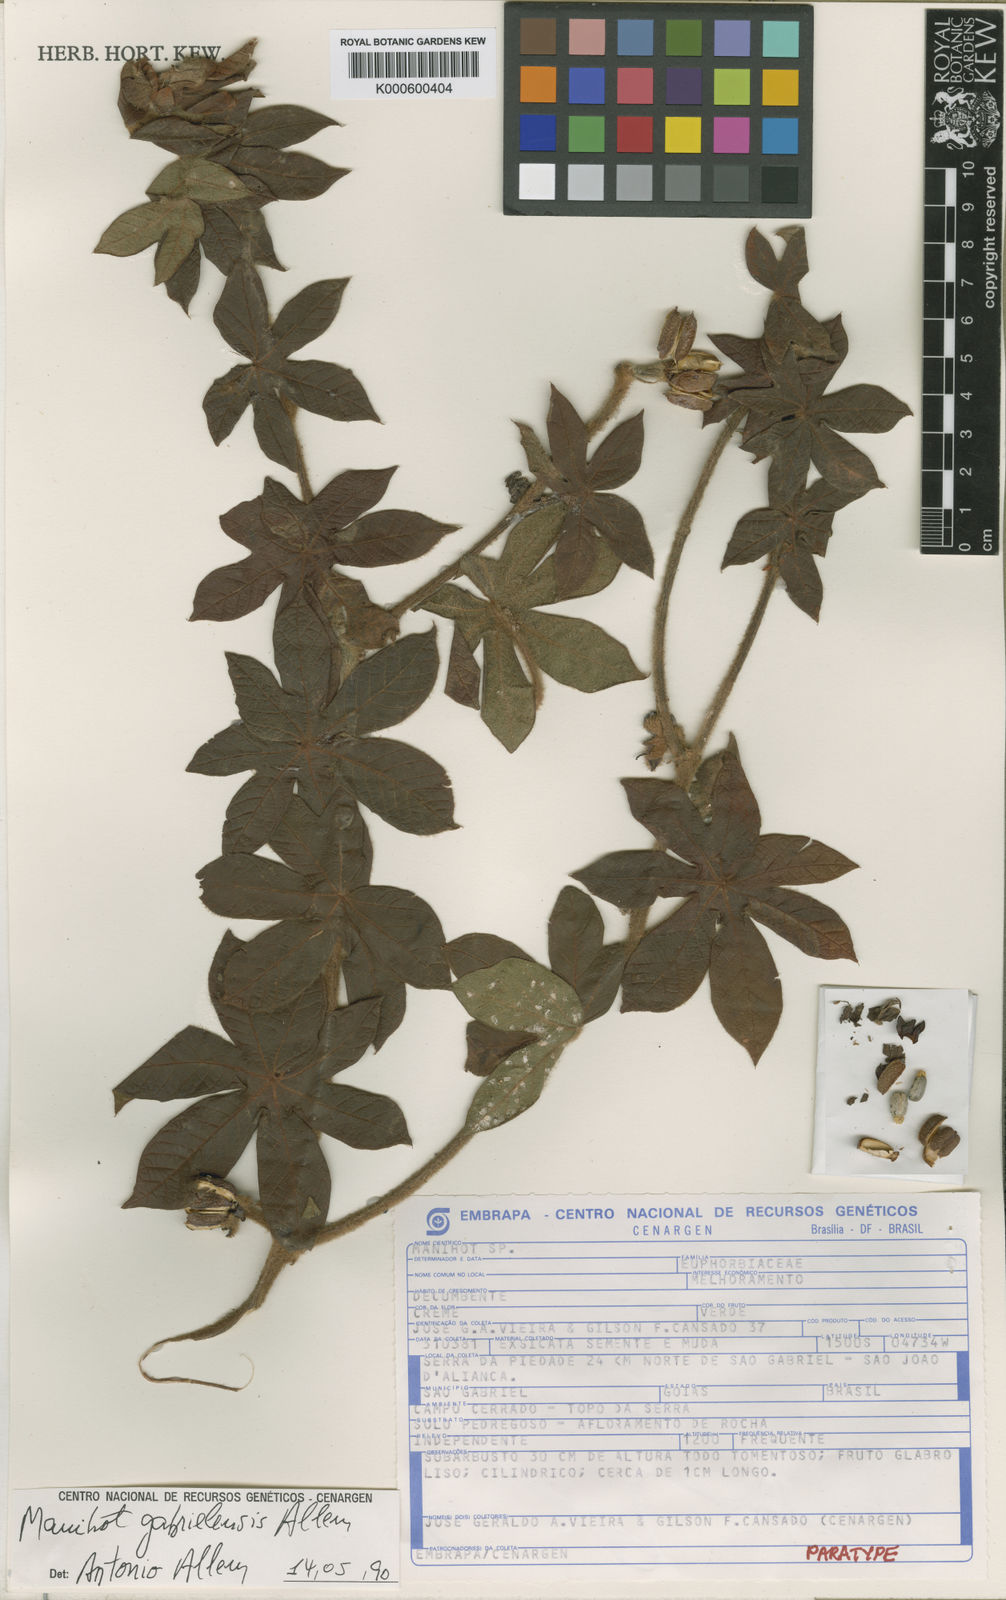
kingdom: Plantae
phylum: Tracheophyta
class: Magnoliopsida
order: Malpighiales
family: Euphorbiaceae
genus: Manihot
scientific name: Manihot
